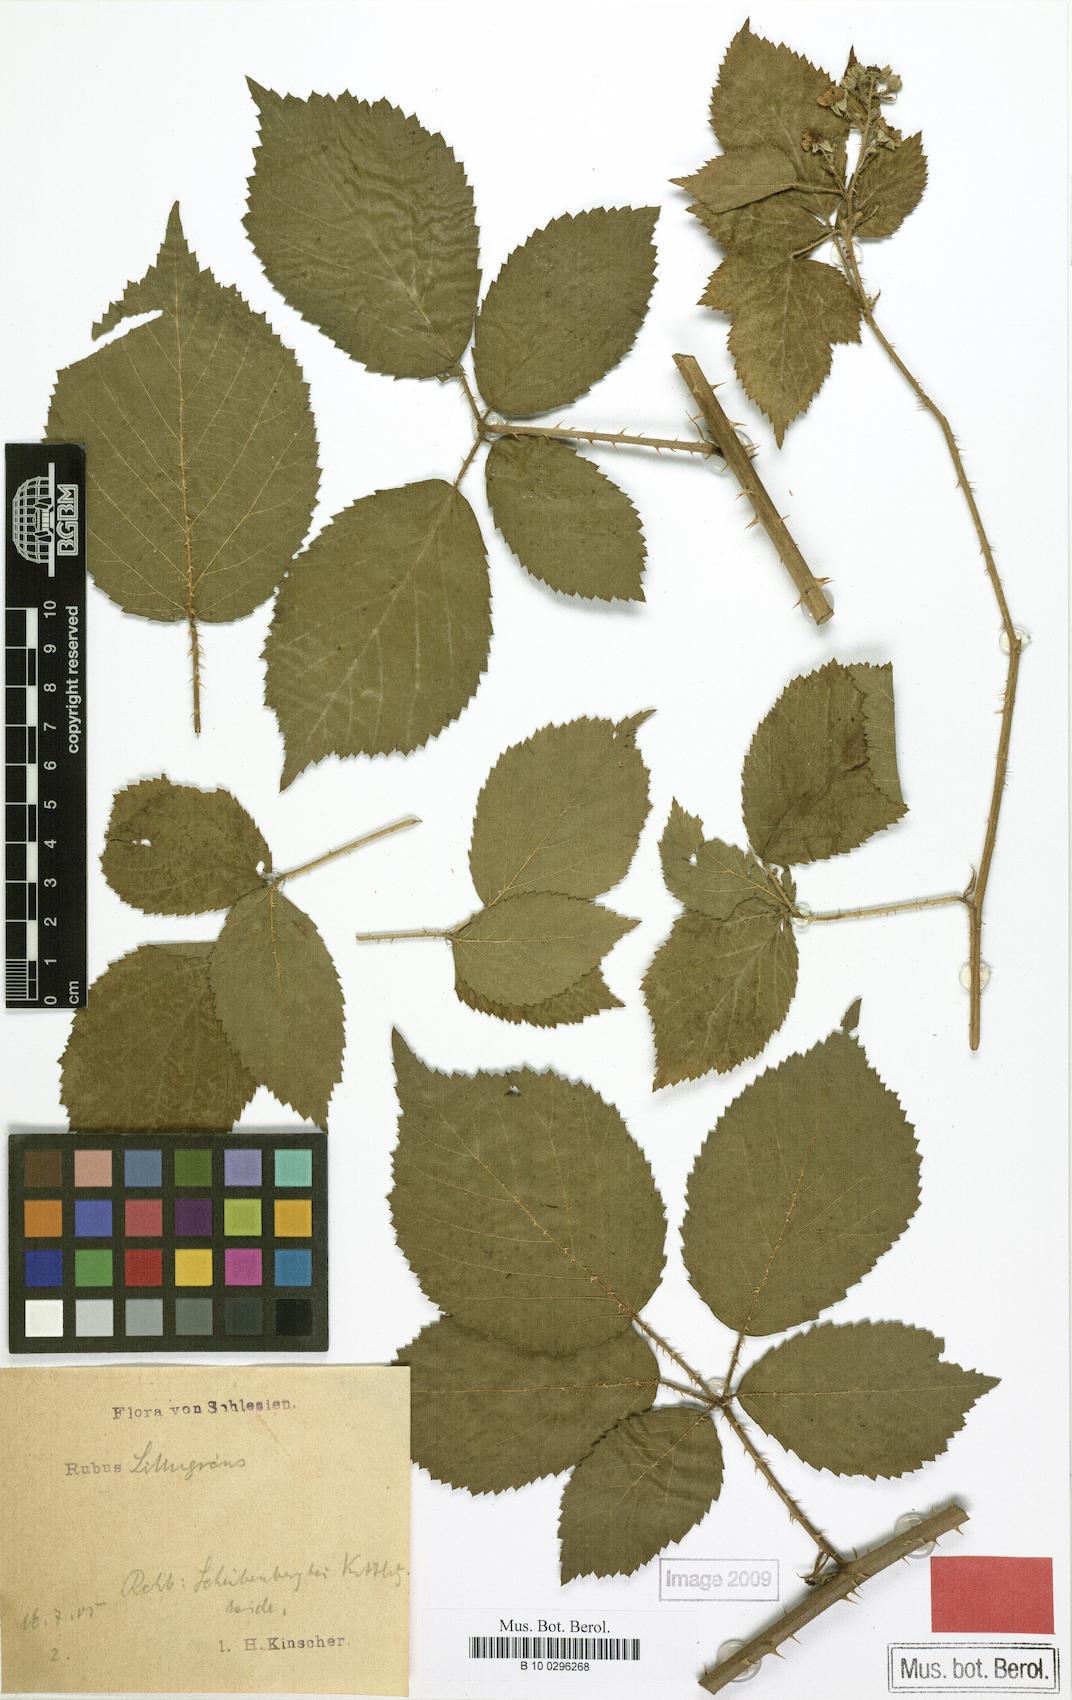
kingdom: Plantae
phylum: Tracheophyta
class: Magnoliopsida
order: Rosales
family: Rosaceae
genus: Rubus
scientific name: Rubus chlorothyrsos
